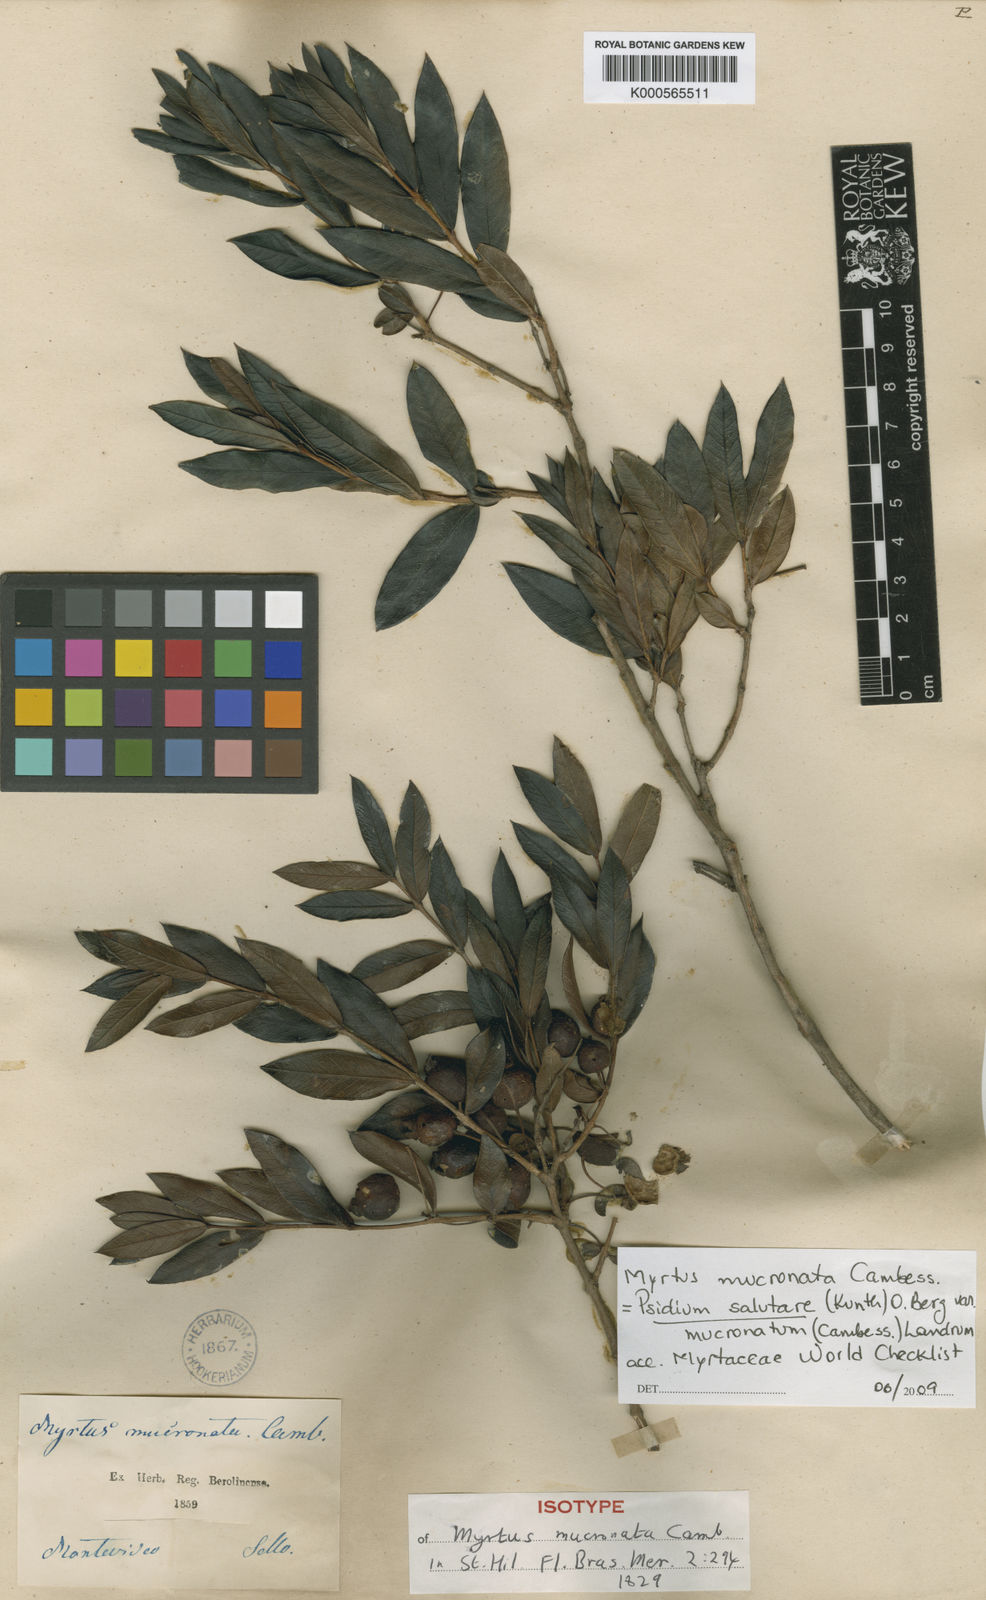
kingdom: Plantae
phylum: Tracheophyta
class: Magnoliopsida
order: Myrtales
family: Myrtaceae
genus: Psidium
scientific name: Psidium salutare
